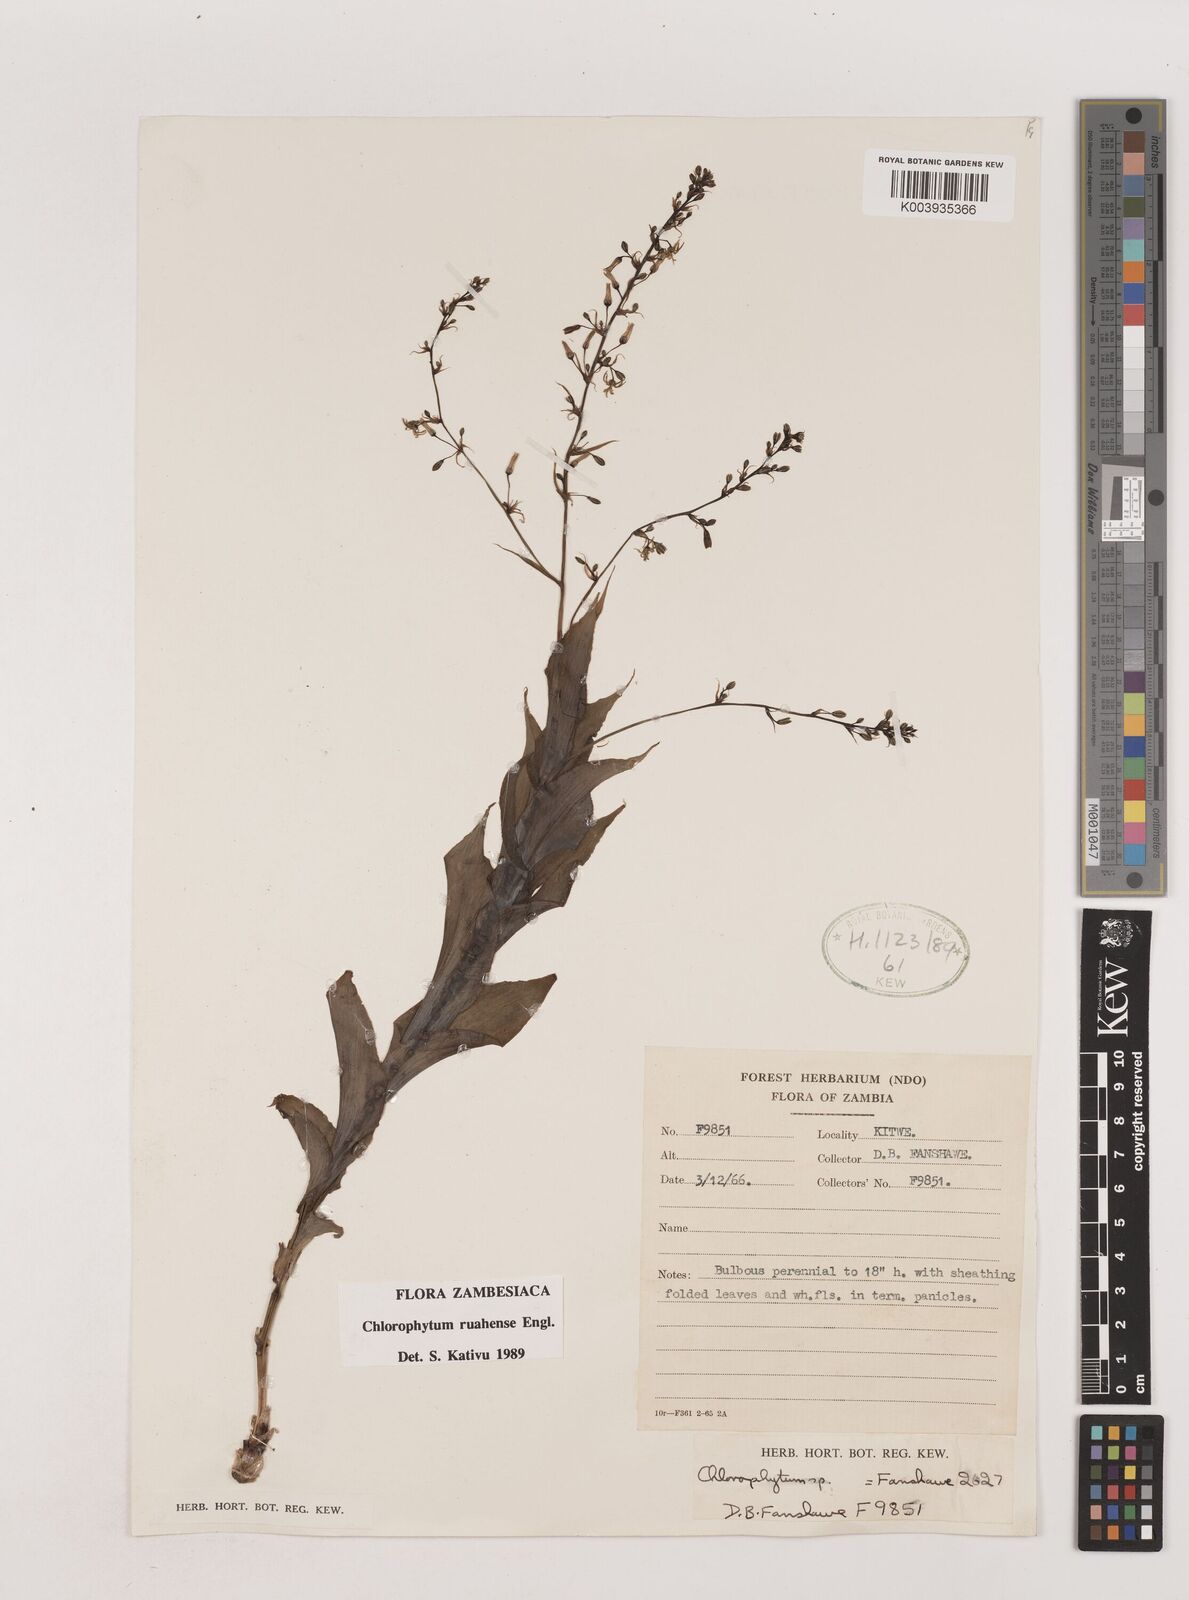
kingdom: Plantae
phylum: Tracheophyta
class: Liliopsida
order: Asparagales
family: Asparagaceae
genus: Chlorophytum
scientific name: Chlorophytum ruahense
